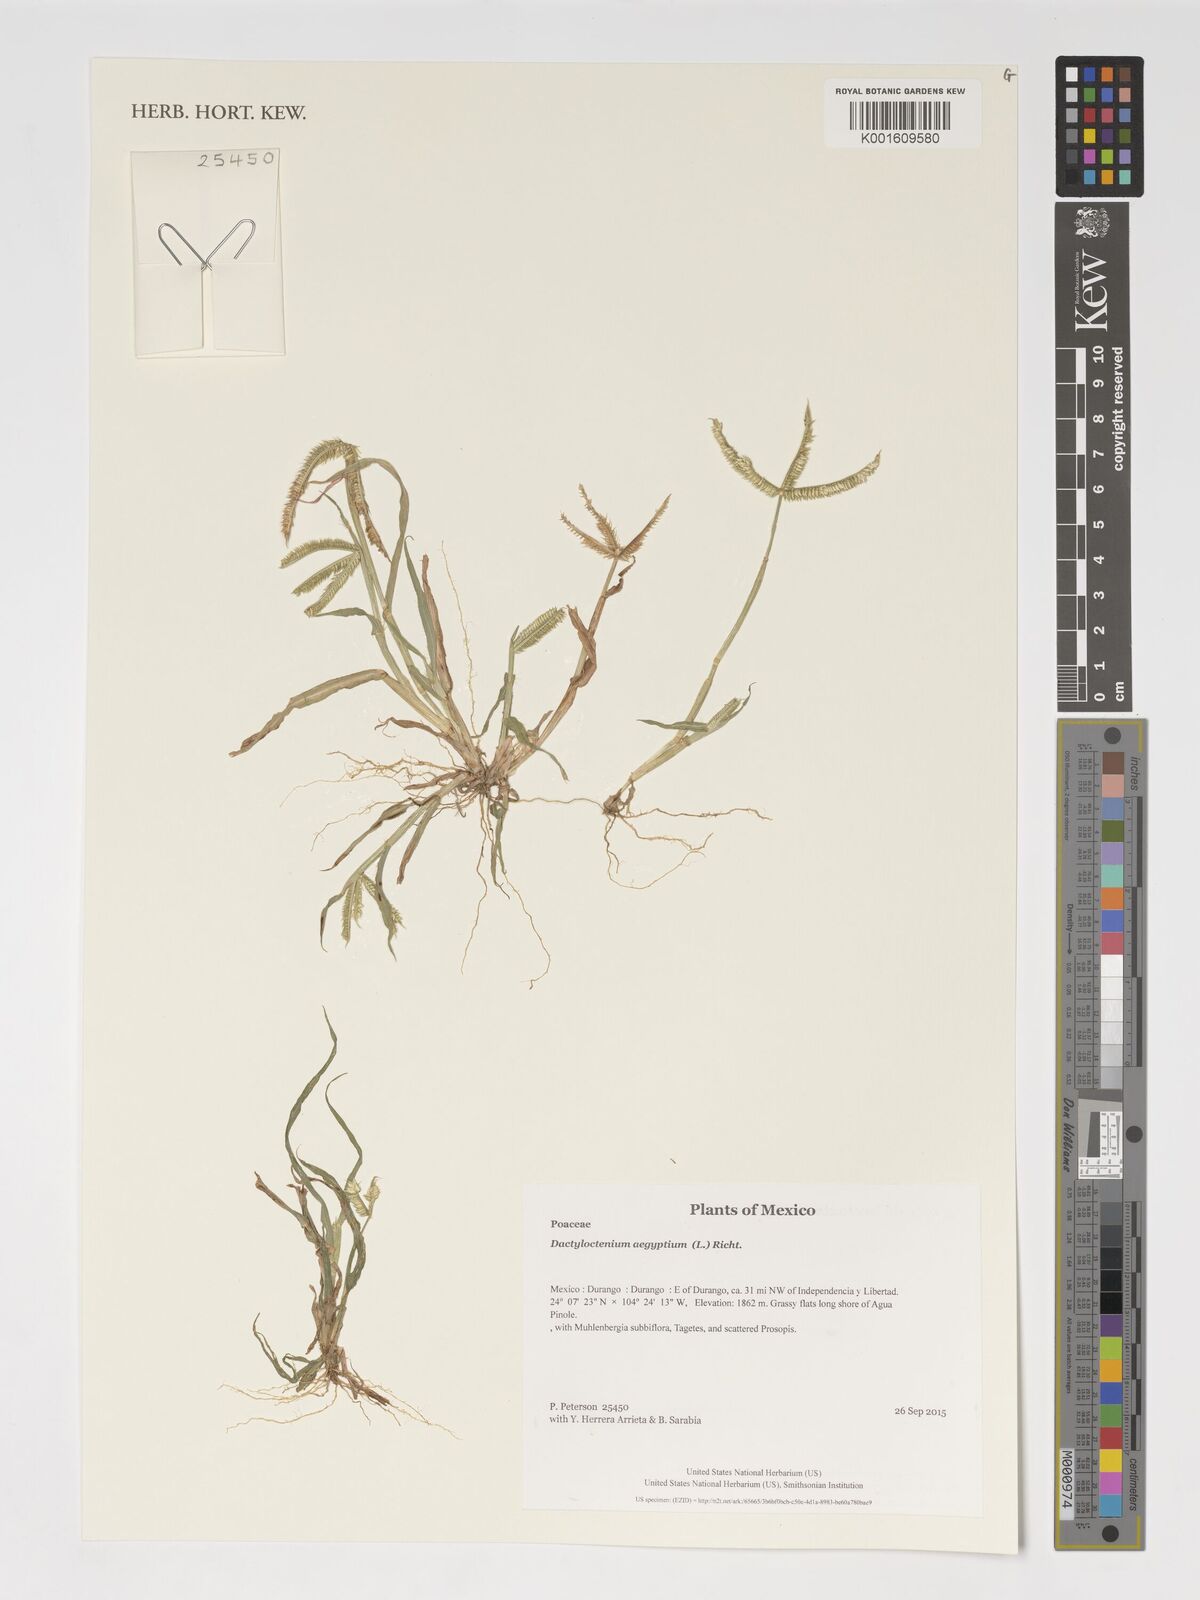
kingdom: Plantae
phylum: Tracheophyta
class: Liliopsida
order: Poales
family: Poaceae
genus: Dactyloctenium
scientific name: Dactyloctenium aegyptium
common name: Egyptian grass
